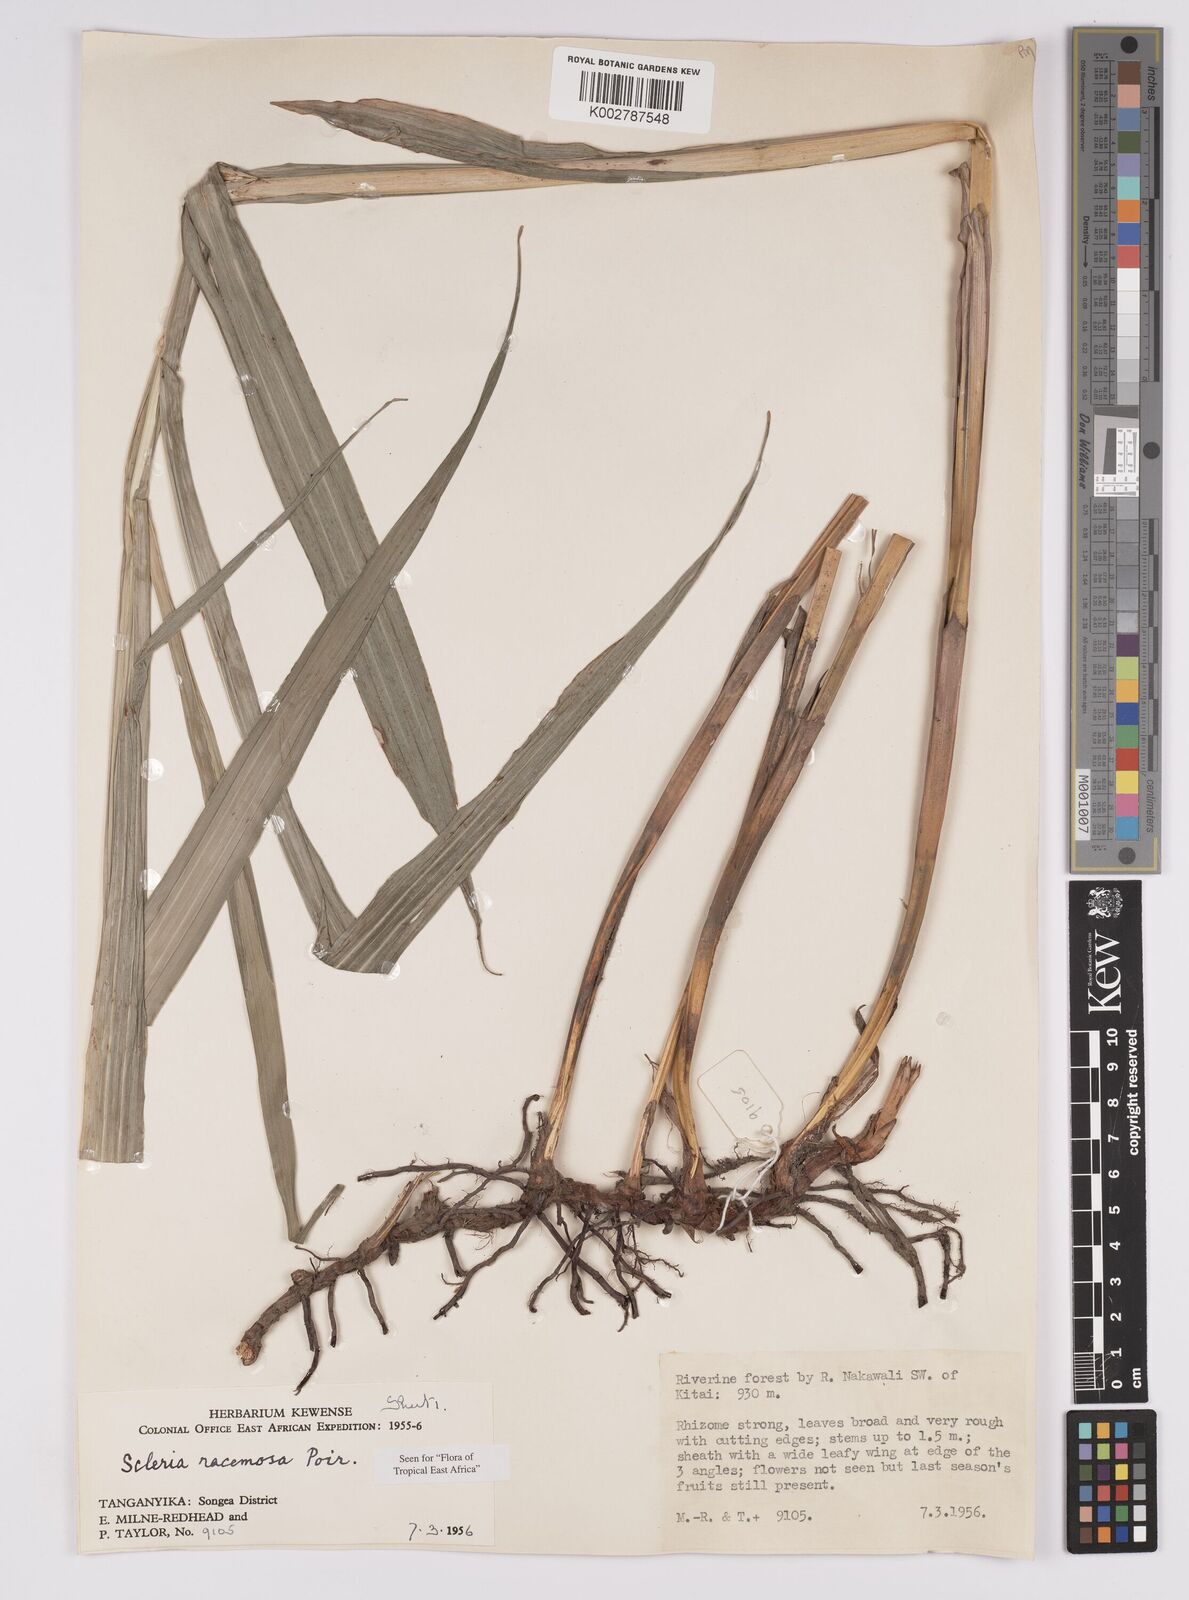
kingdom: Plantae
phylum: Tracheophyta
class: Liliopsida
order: Poales
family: Cyperaceae
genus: Scleria
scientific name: Scleria racemosa
